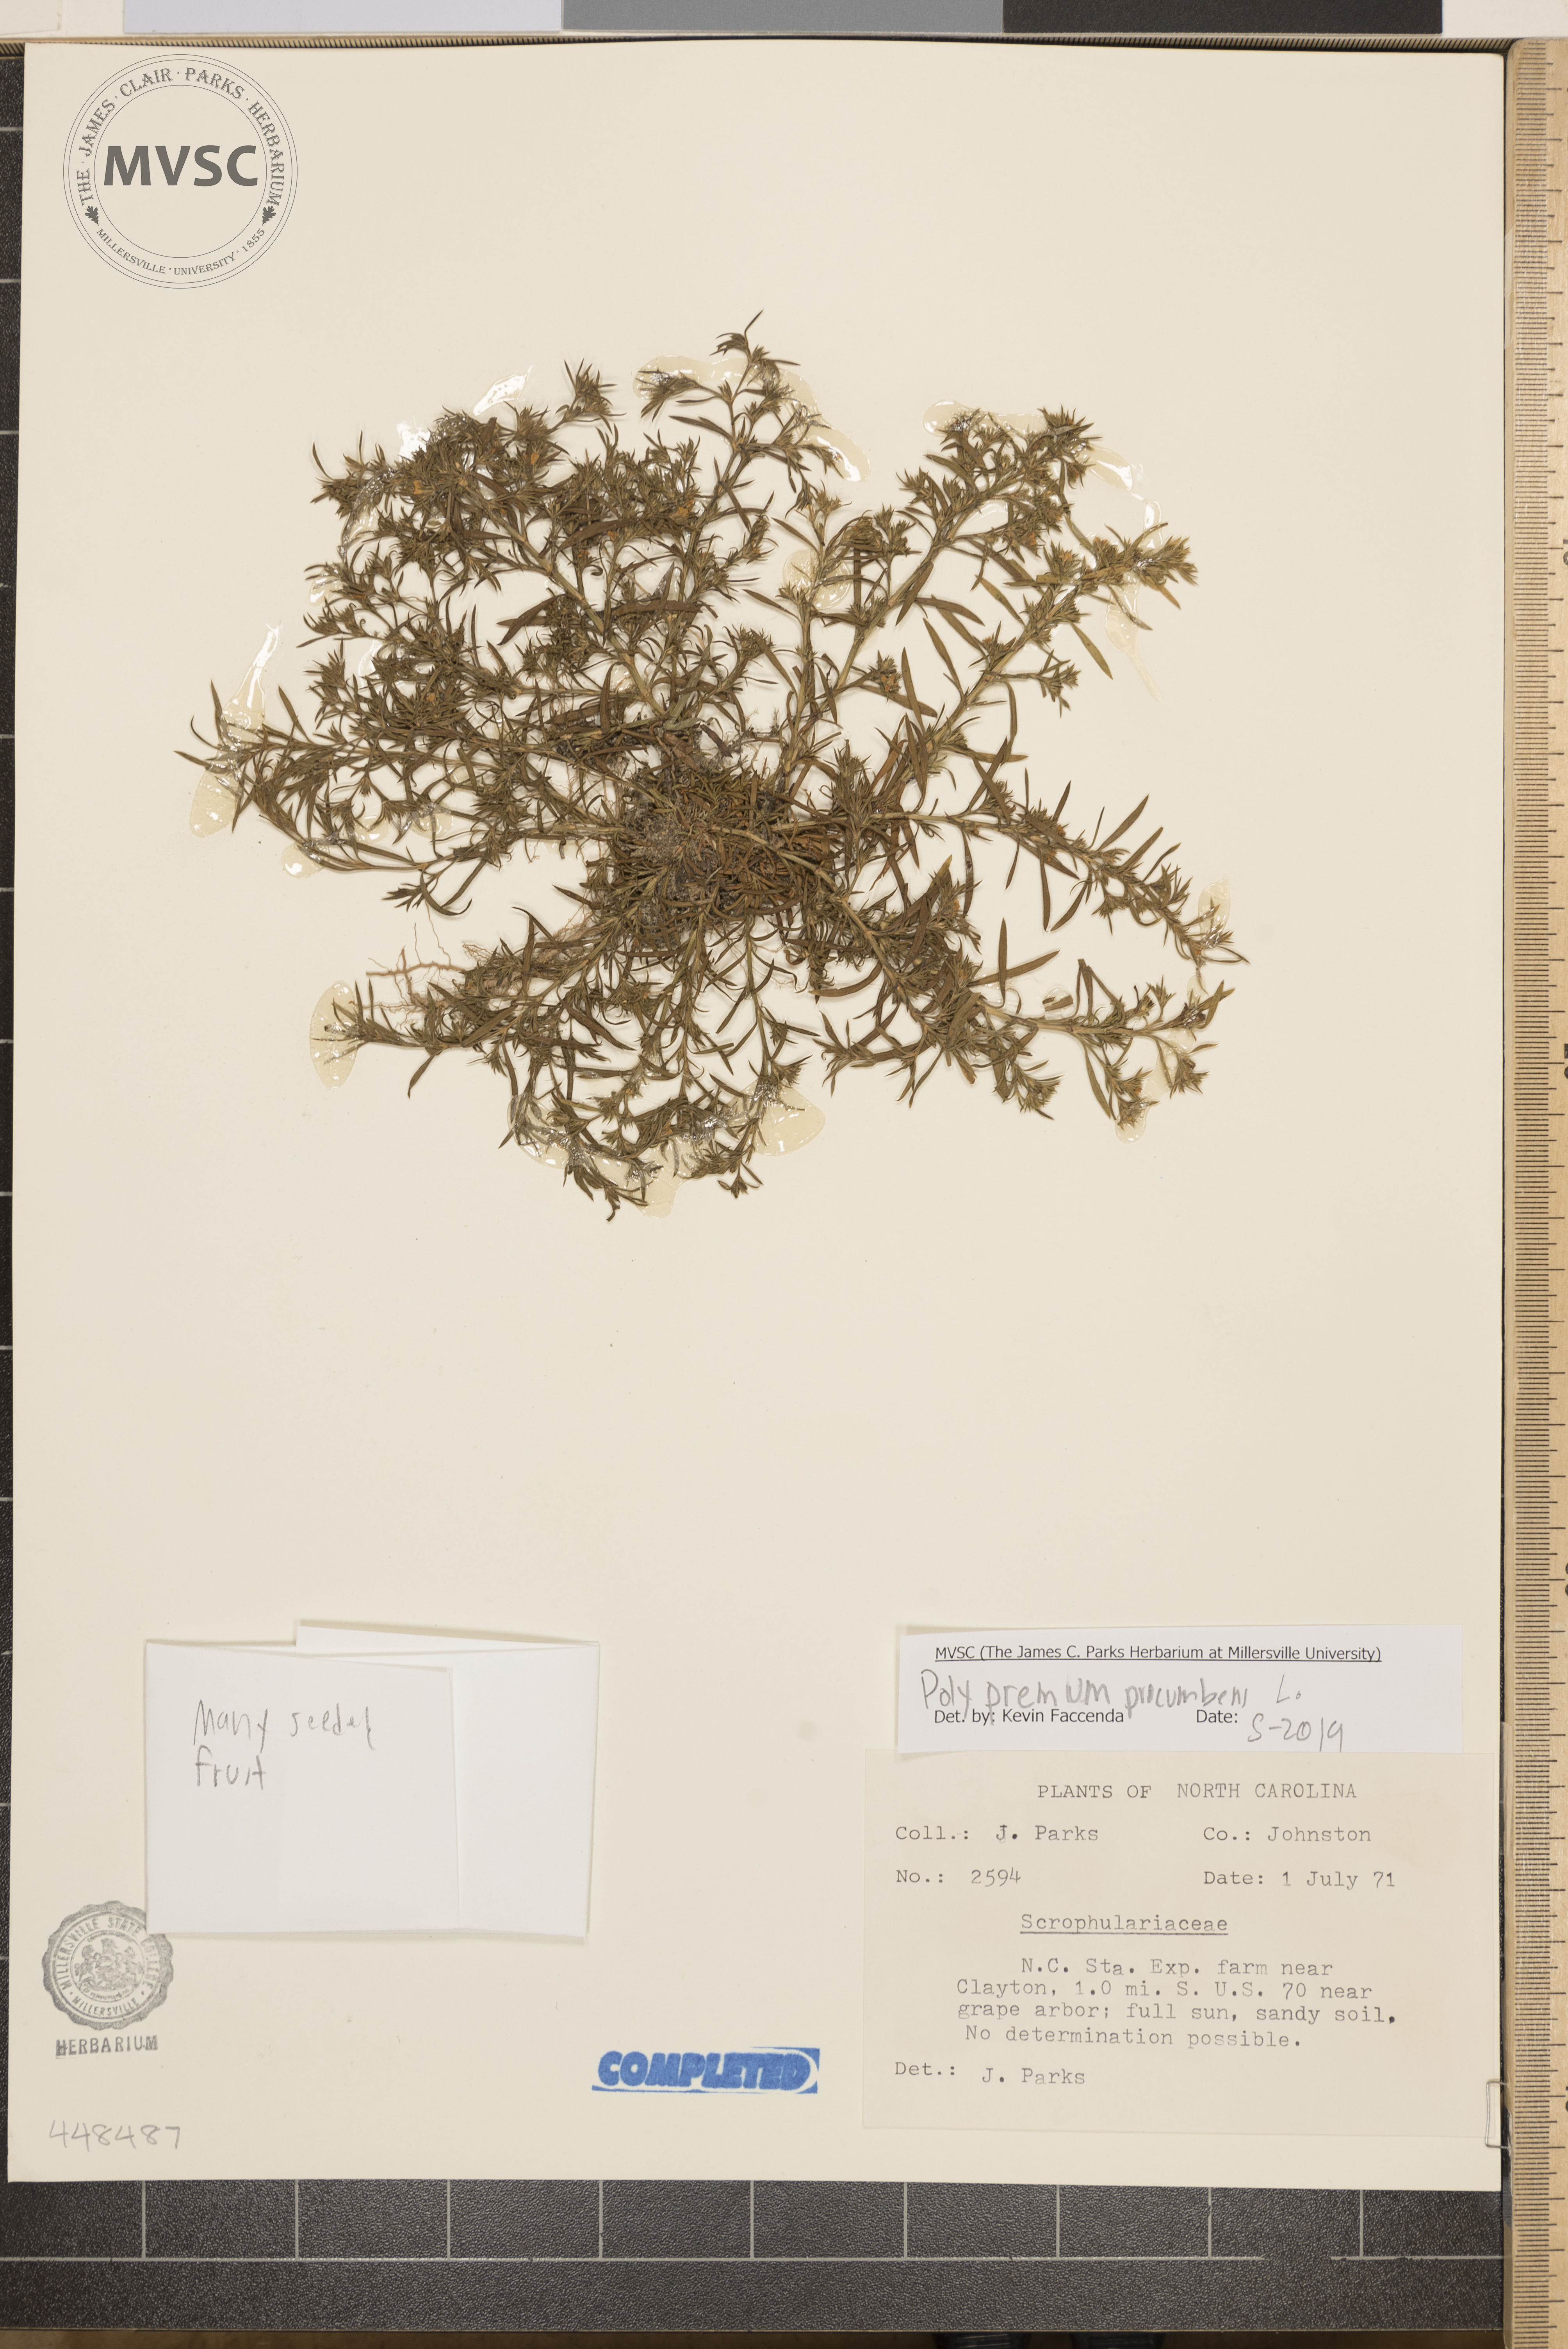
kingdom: Plantae
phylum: Tracheophyta
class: Magnoliopsida
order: Lamiales
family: Tetrachondraceae
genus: Polypremum
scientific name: Polypremum procumbens
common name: Juniper-leaf
